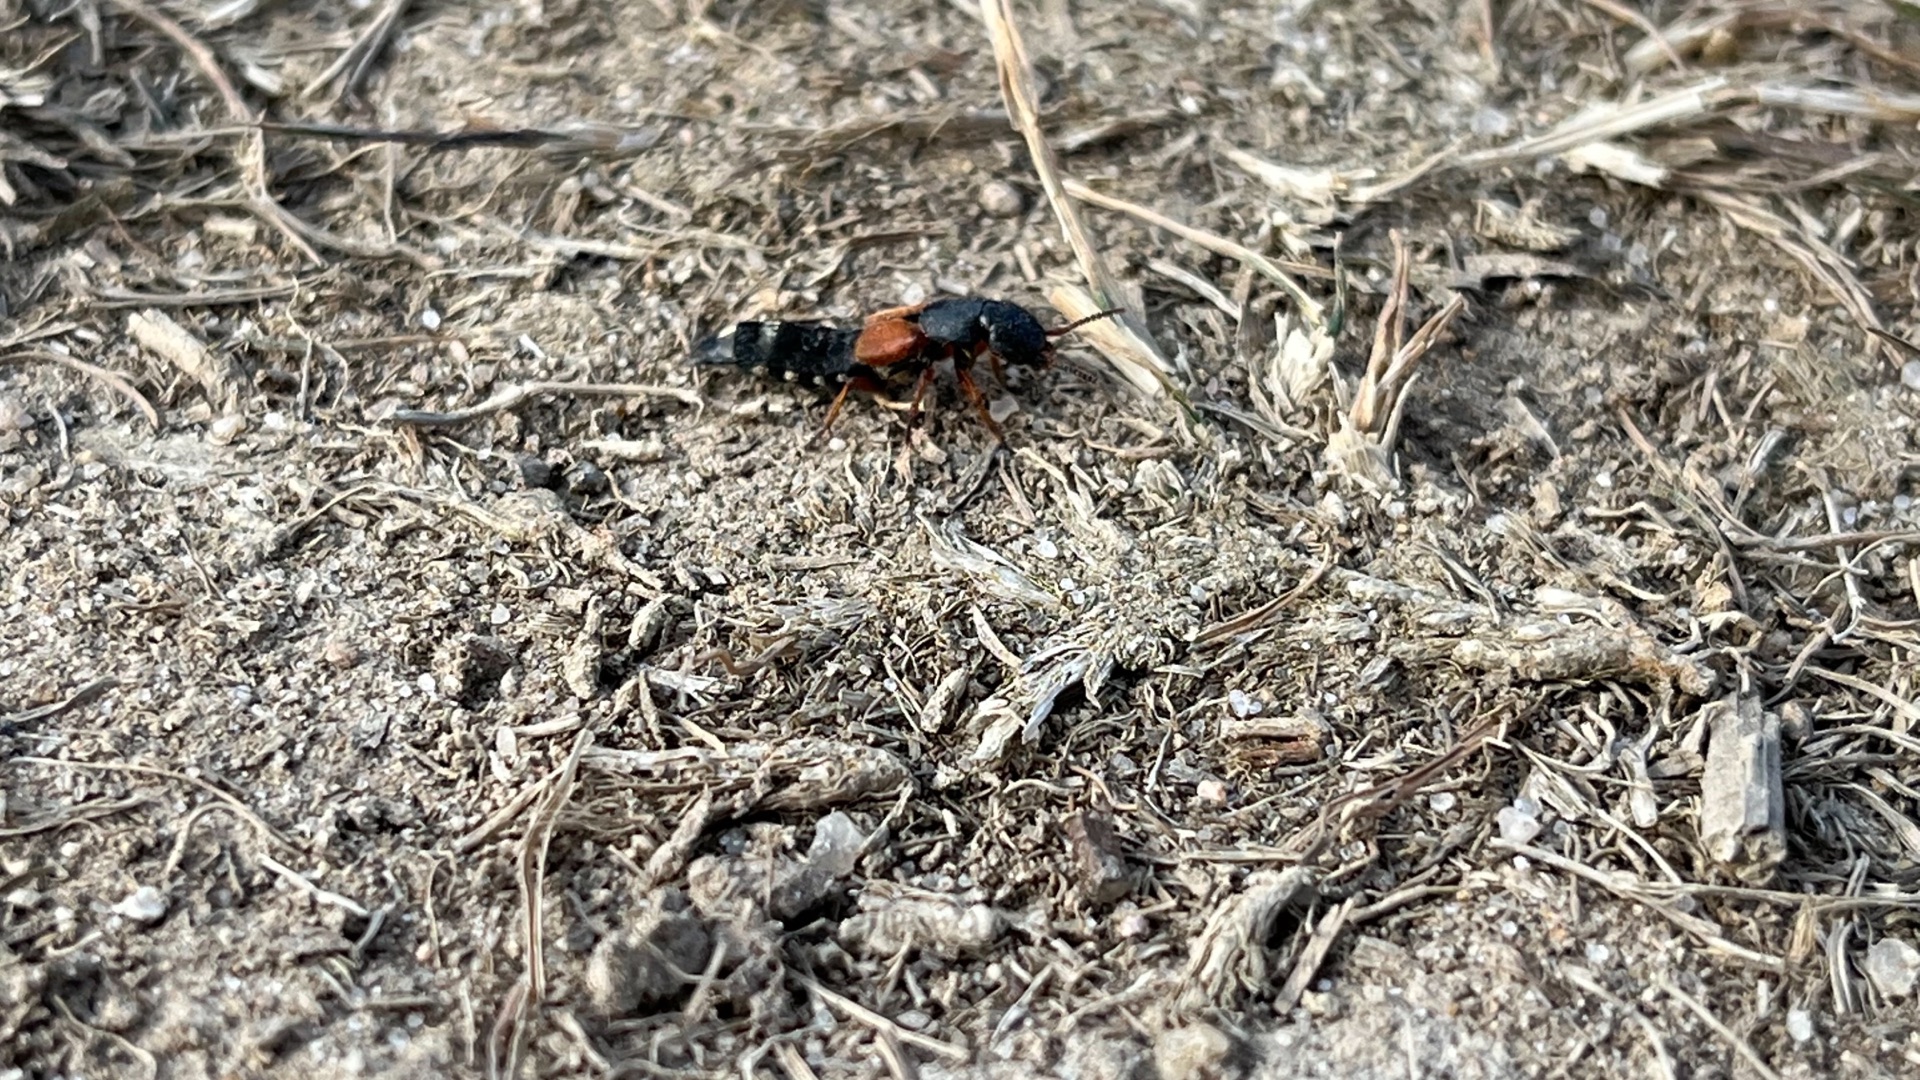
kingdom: Animalia
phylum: Arthropoda
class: Insecta
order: Coleoptera
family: Staphylinidae
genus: Platydracus
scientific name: Platydracus stercorarius
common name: Almindelig guldpletrovbille
